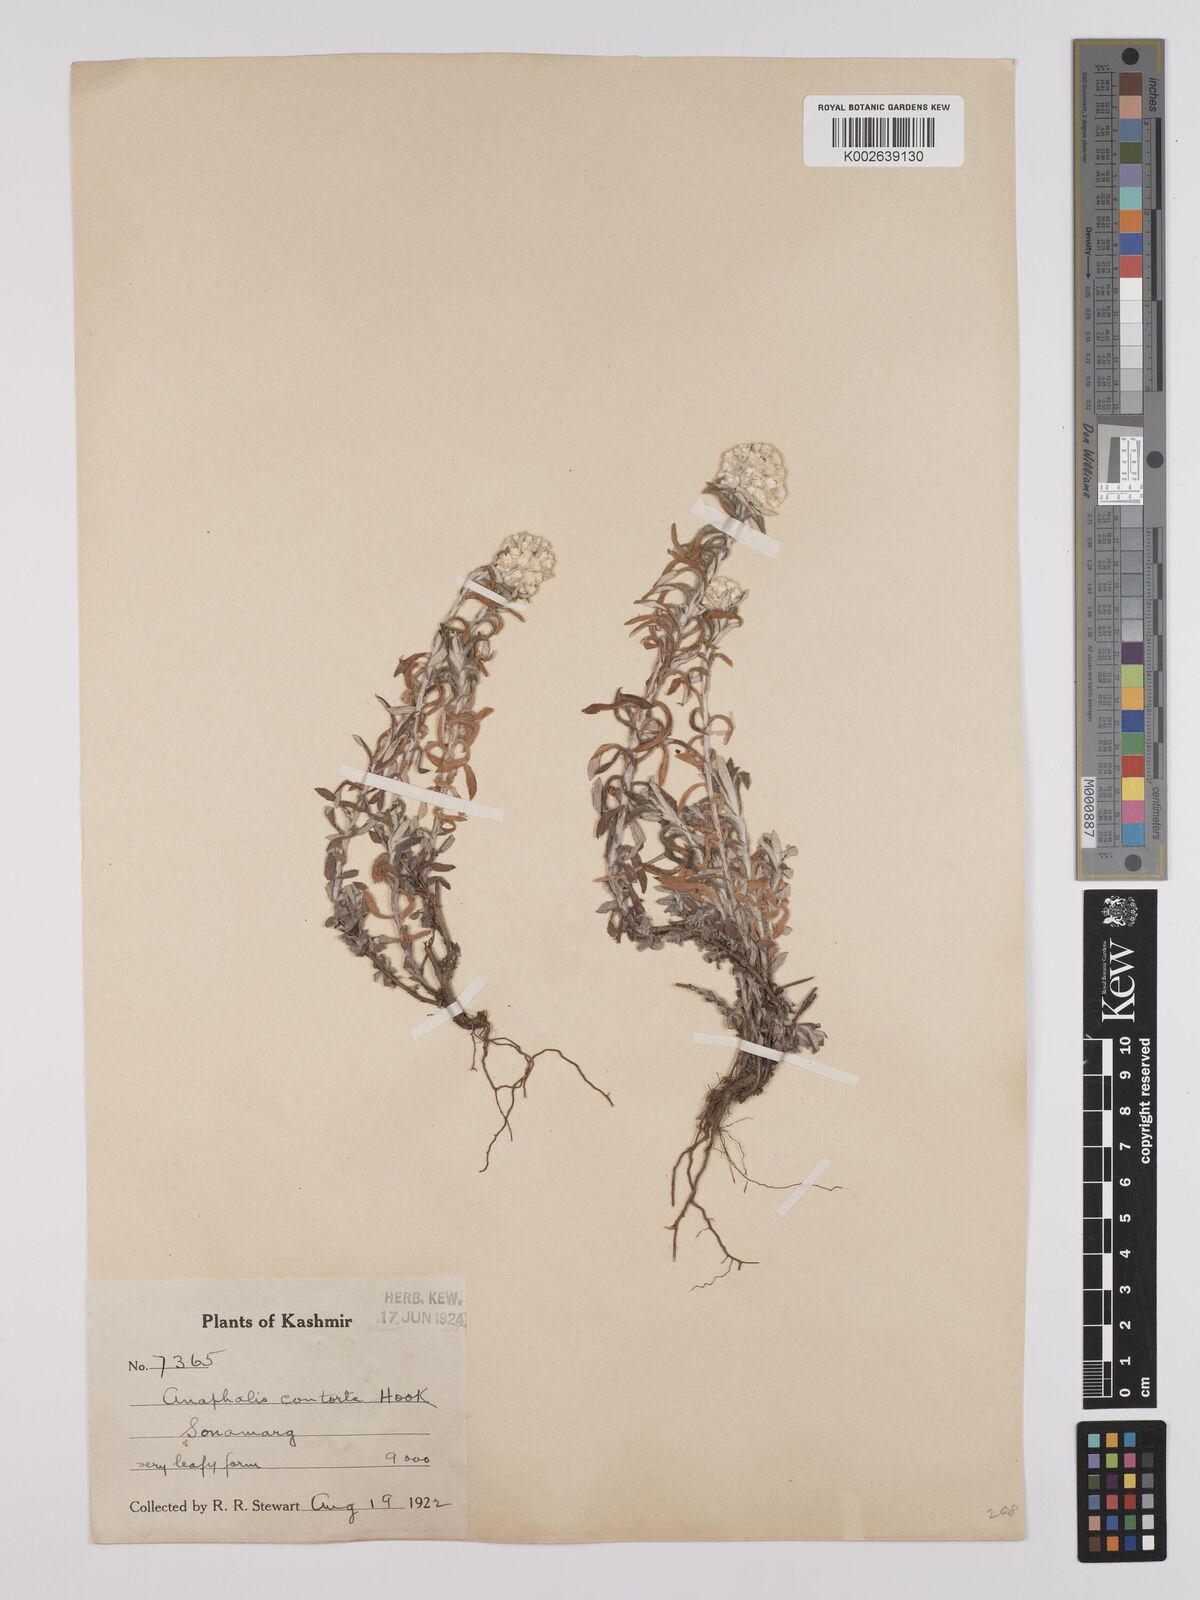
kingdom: Plantae
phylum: Tracheophyta
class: Magnoliopsida
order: Asterales
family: Asteraceae
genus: Anaphalis
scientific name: Anaphalis contorta
